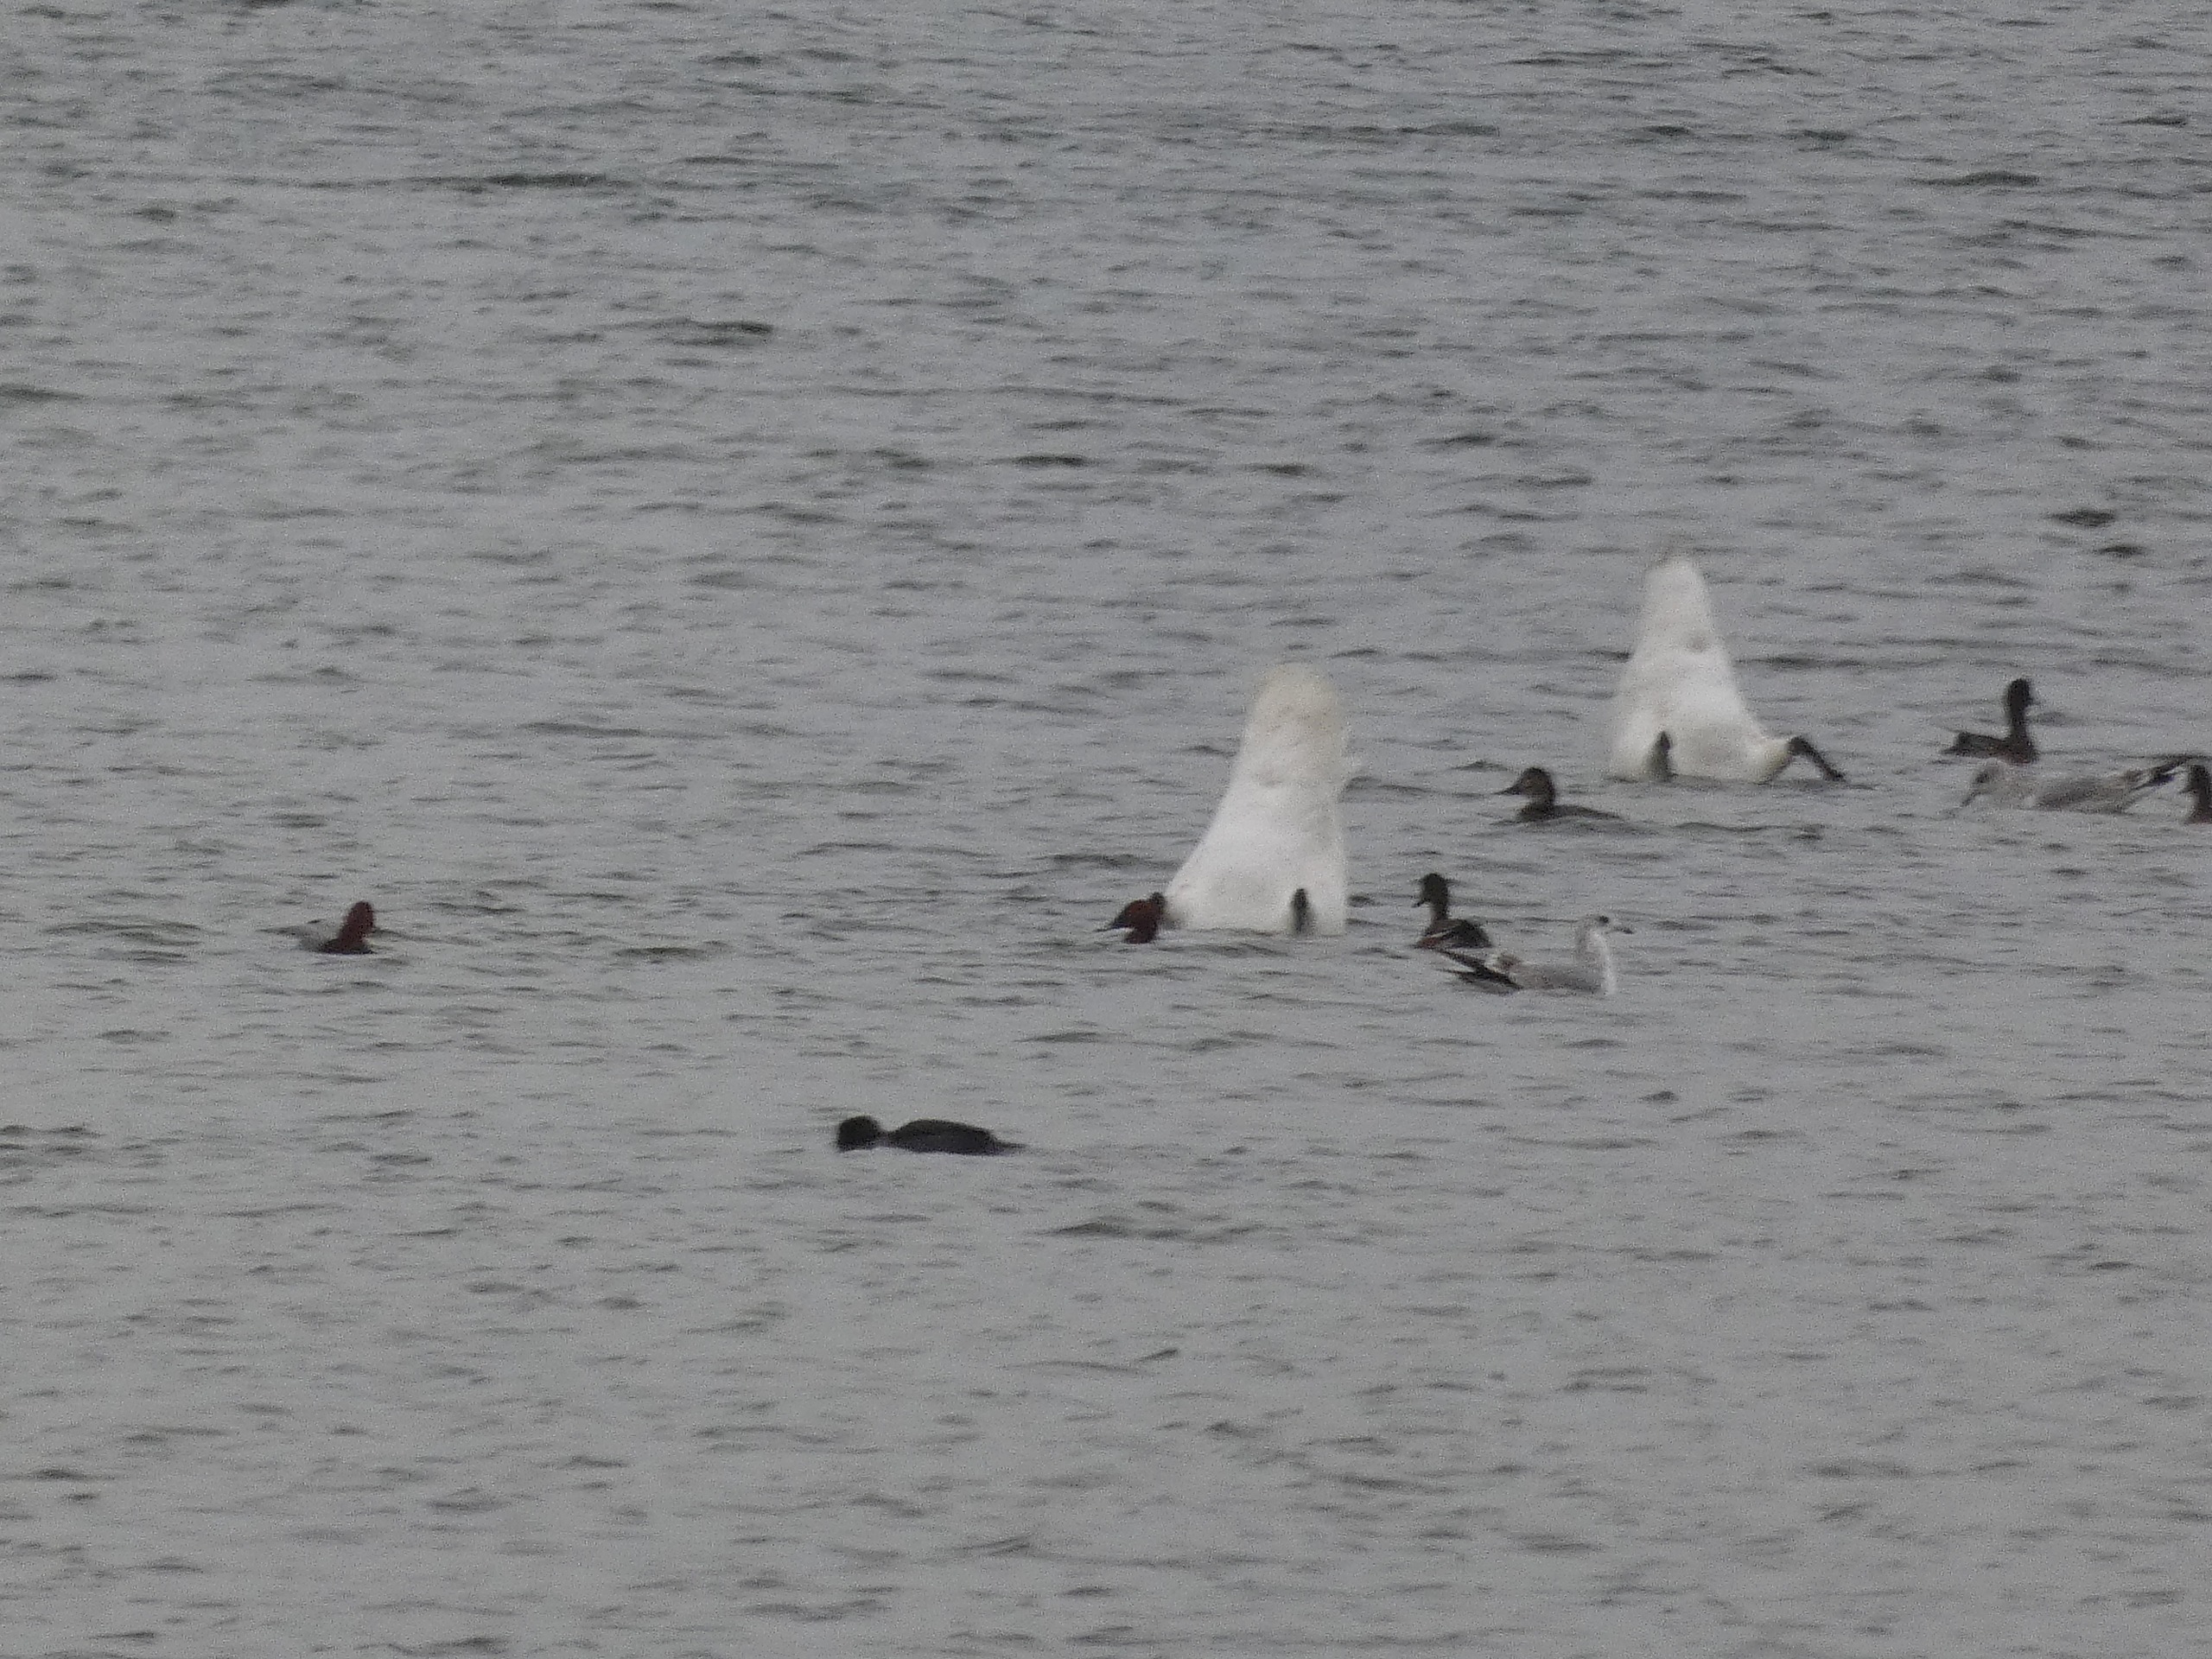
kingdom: Animalia
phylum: Chordata
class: Aves
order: Anseriformes
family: Anatidae
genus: Aythya
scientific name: Aythya ferina
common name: Taffeland
